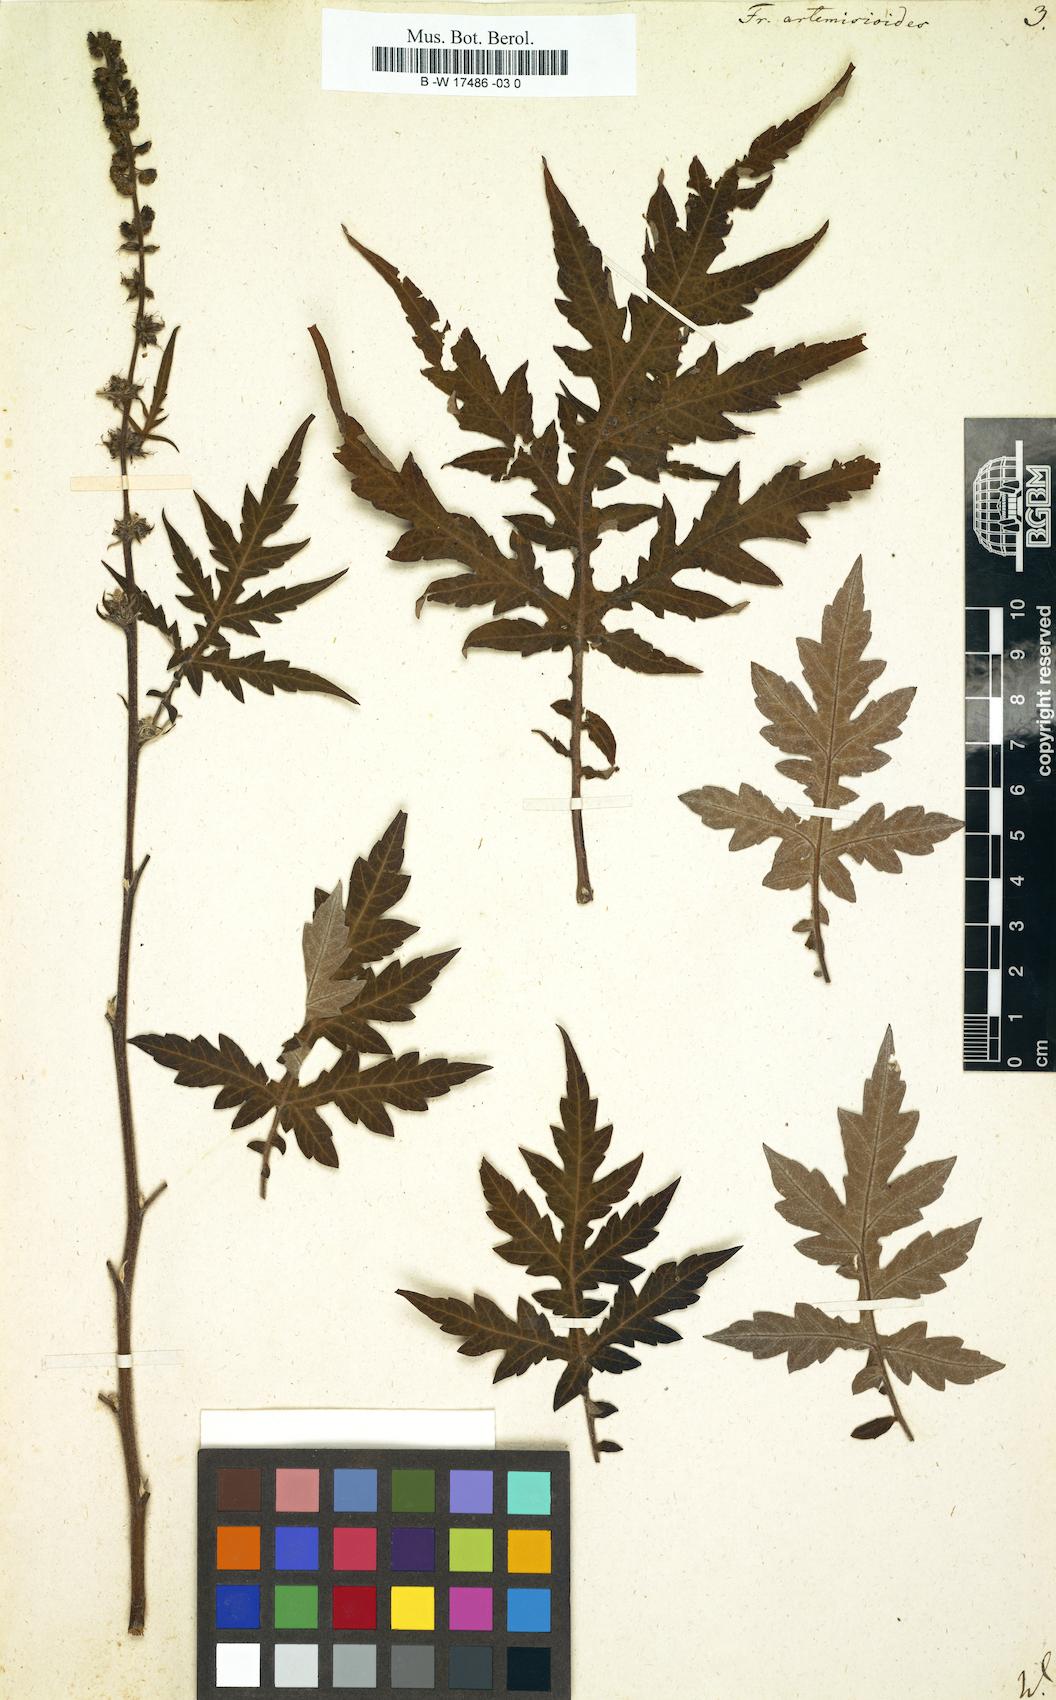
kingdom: Plantae
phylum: Tracheophyta
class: Magnoliopsida
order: Asterales
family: Asteraceae
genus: Ambrosia
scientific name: Ambrosia arborescens
